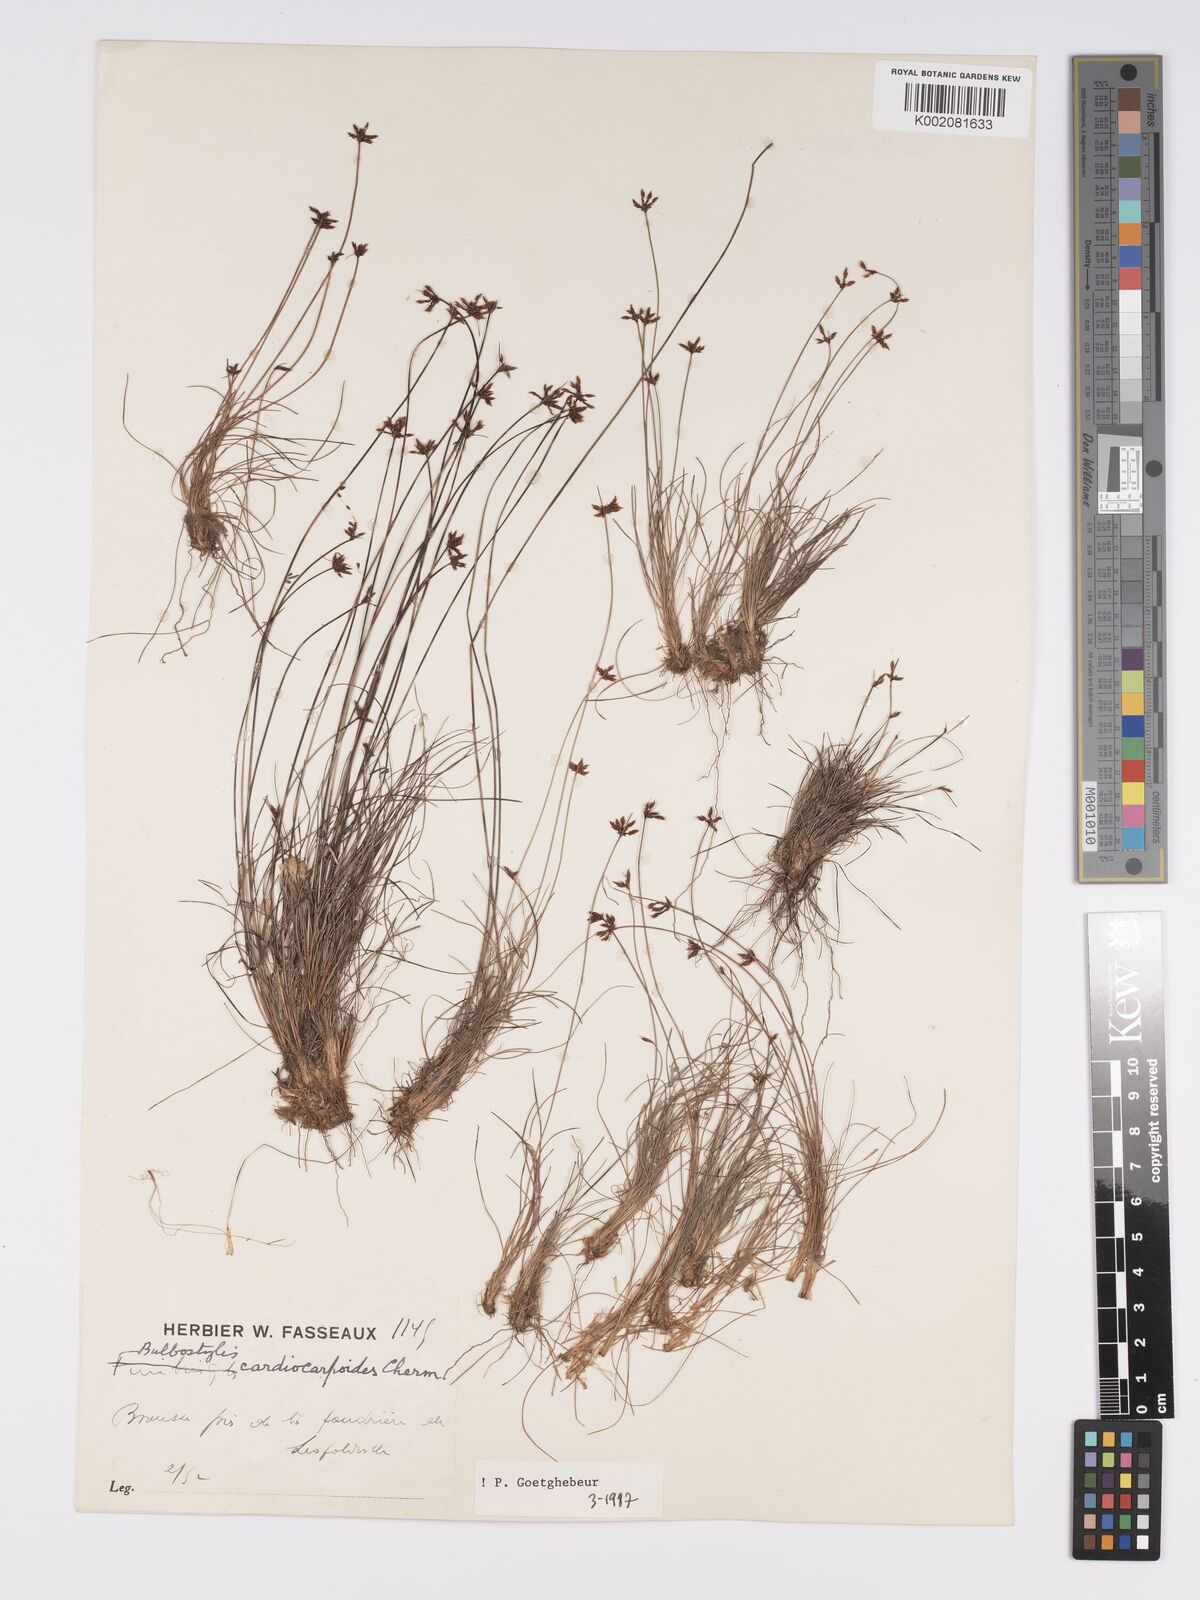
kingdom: Plantae
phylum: Tracheophyta
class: Liliopsida
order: Poales
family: Cyperaceae
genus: Bulbostylis
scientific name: Bulbostylis cardiocarpoides
